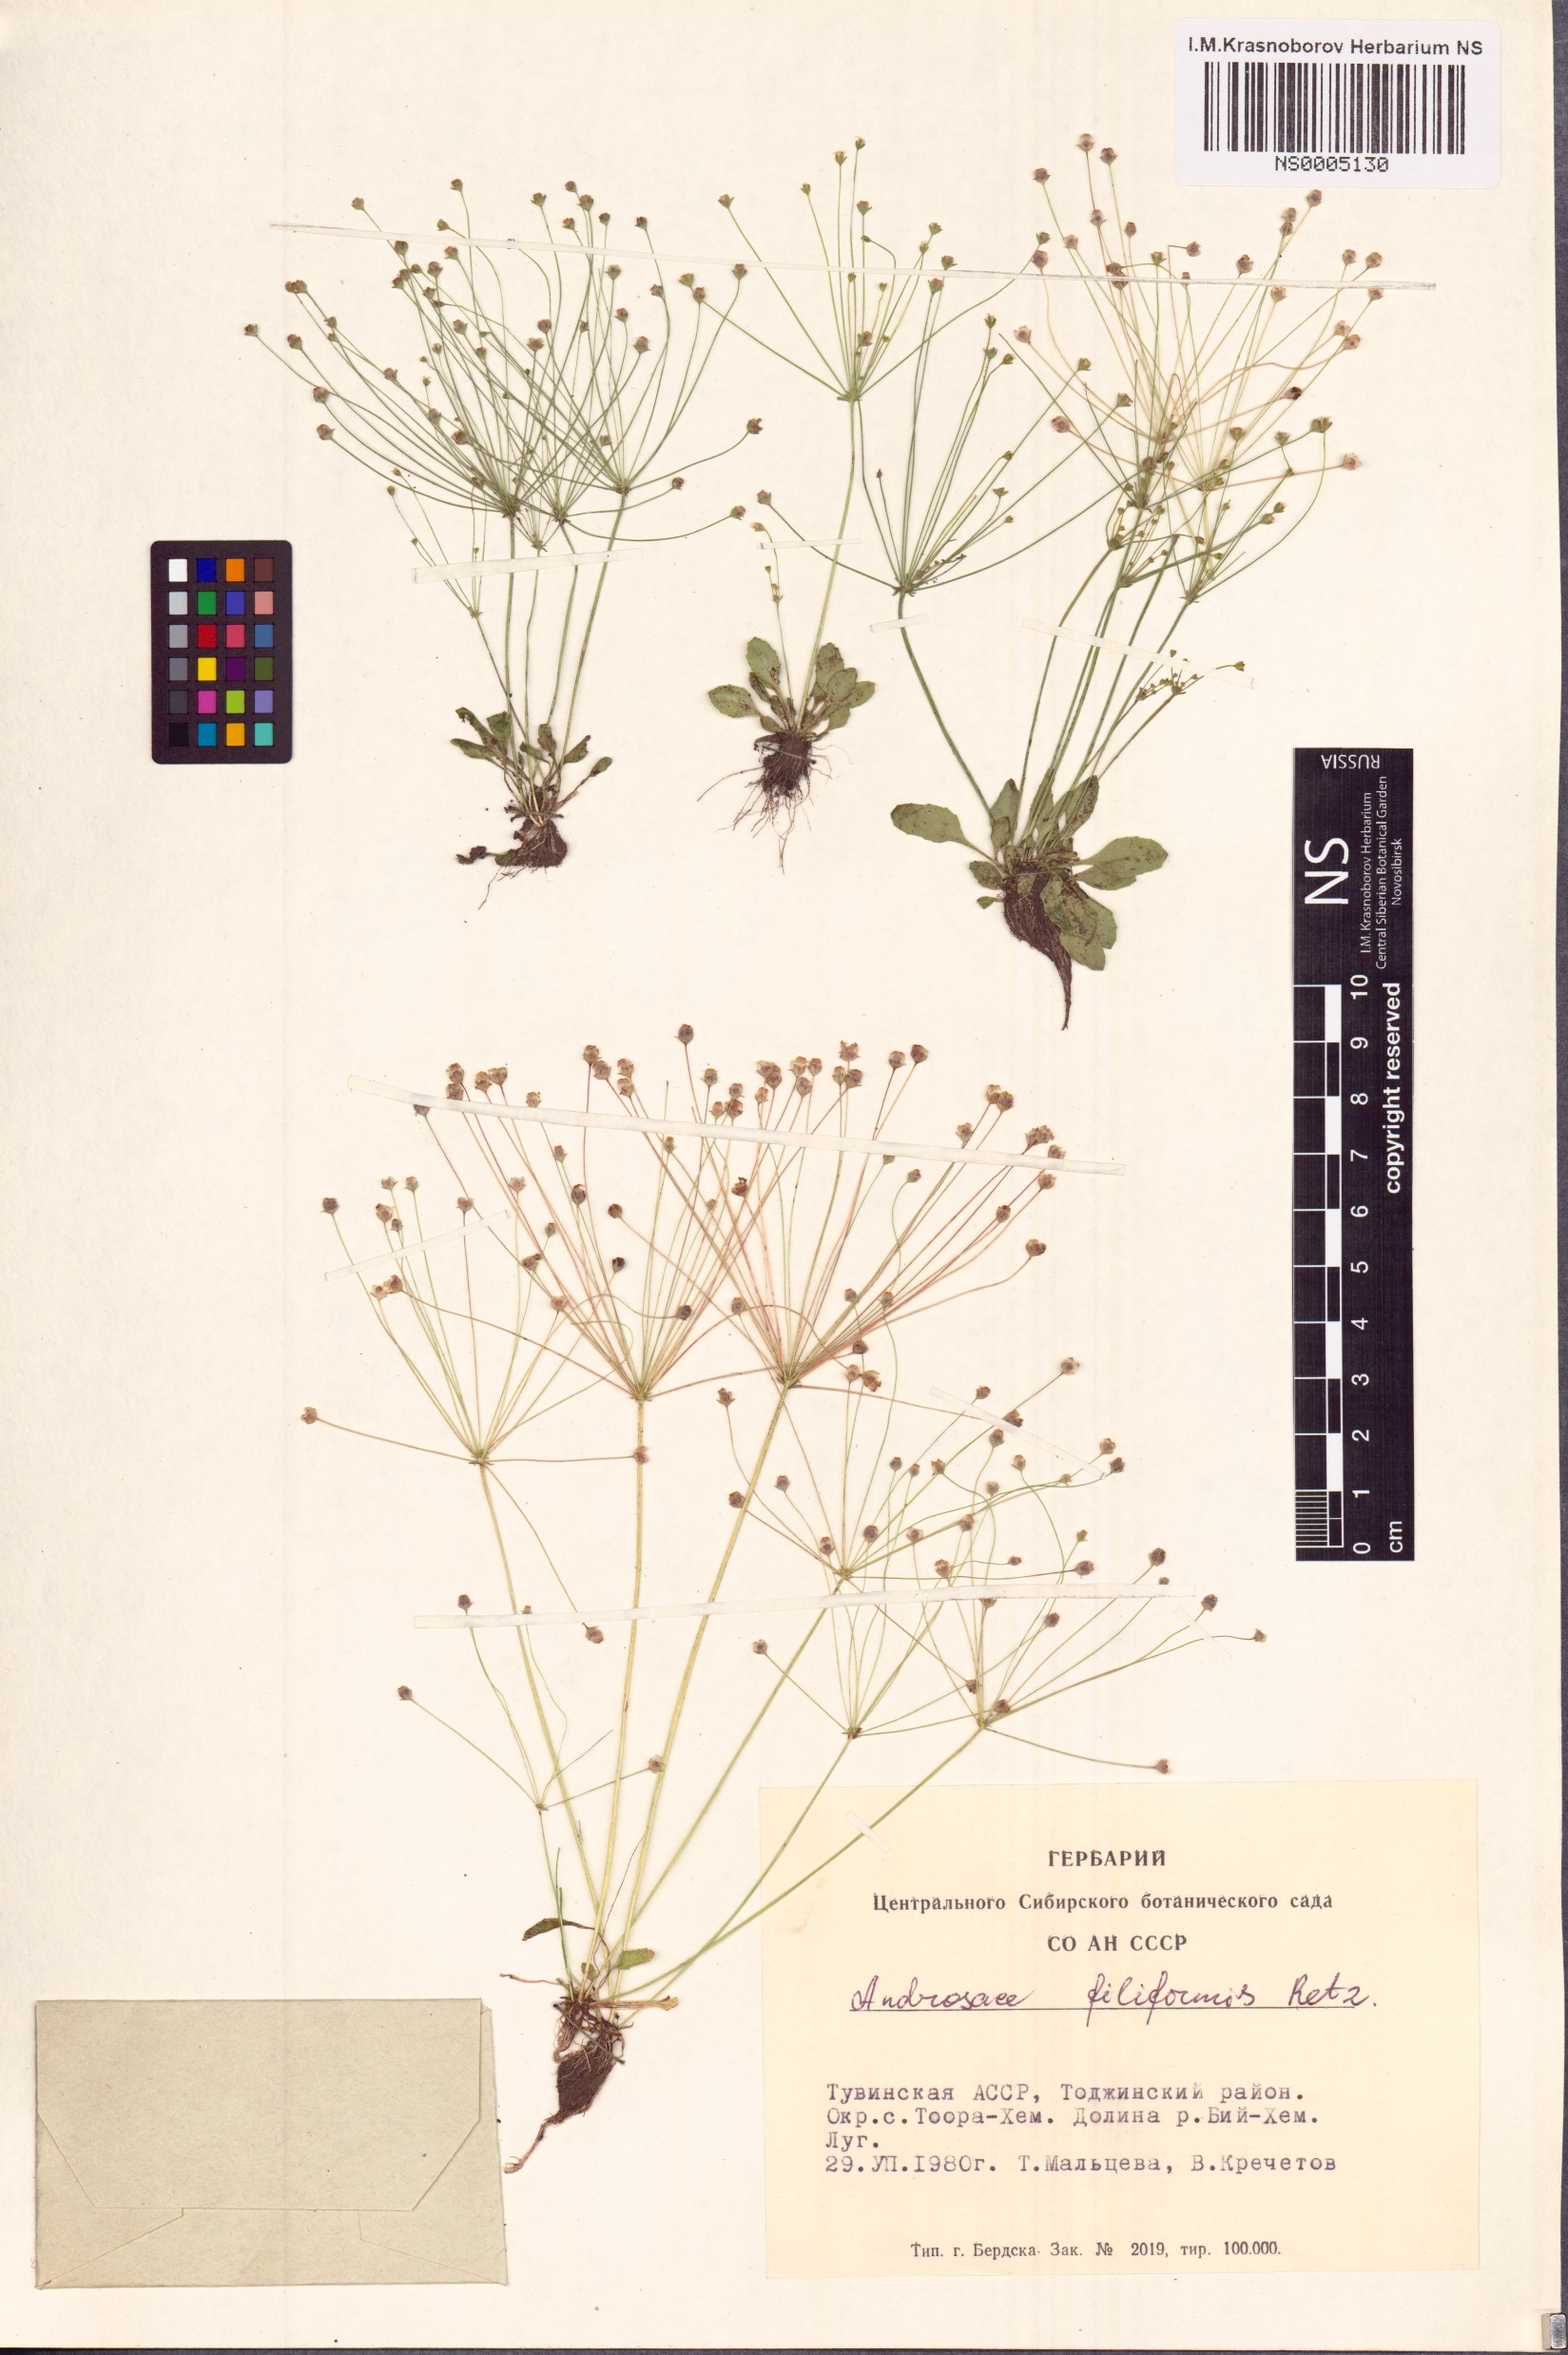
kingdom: Plantae
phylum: Tracheophyta
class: Magnoliopsida
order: Ericales
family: Primulaceae
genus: Androsace
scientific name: Androsace filiformis
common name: Filiform rock jasmine
